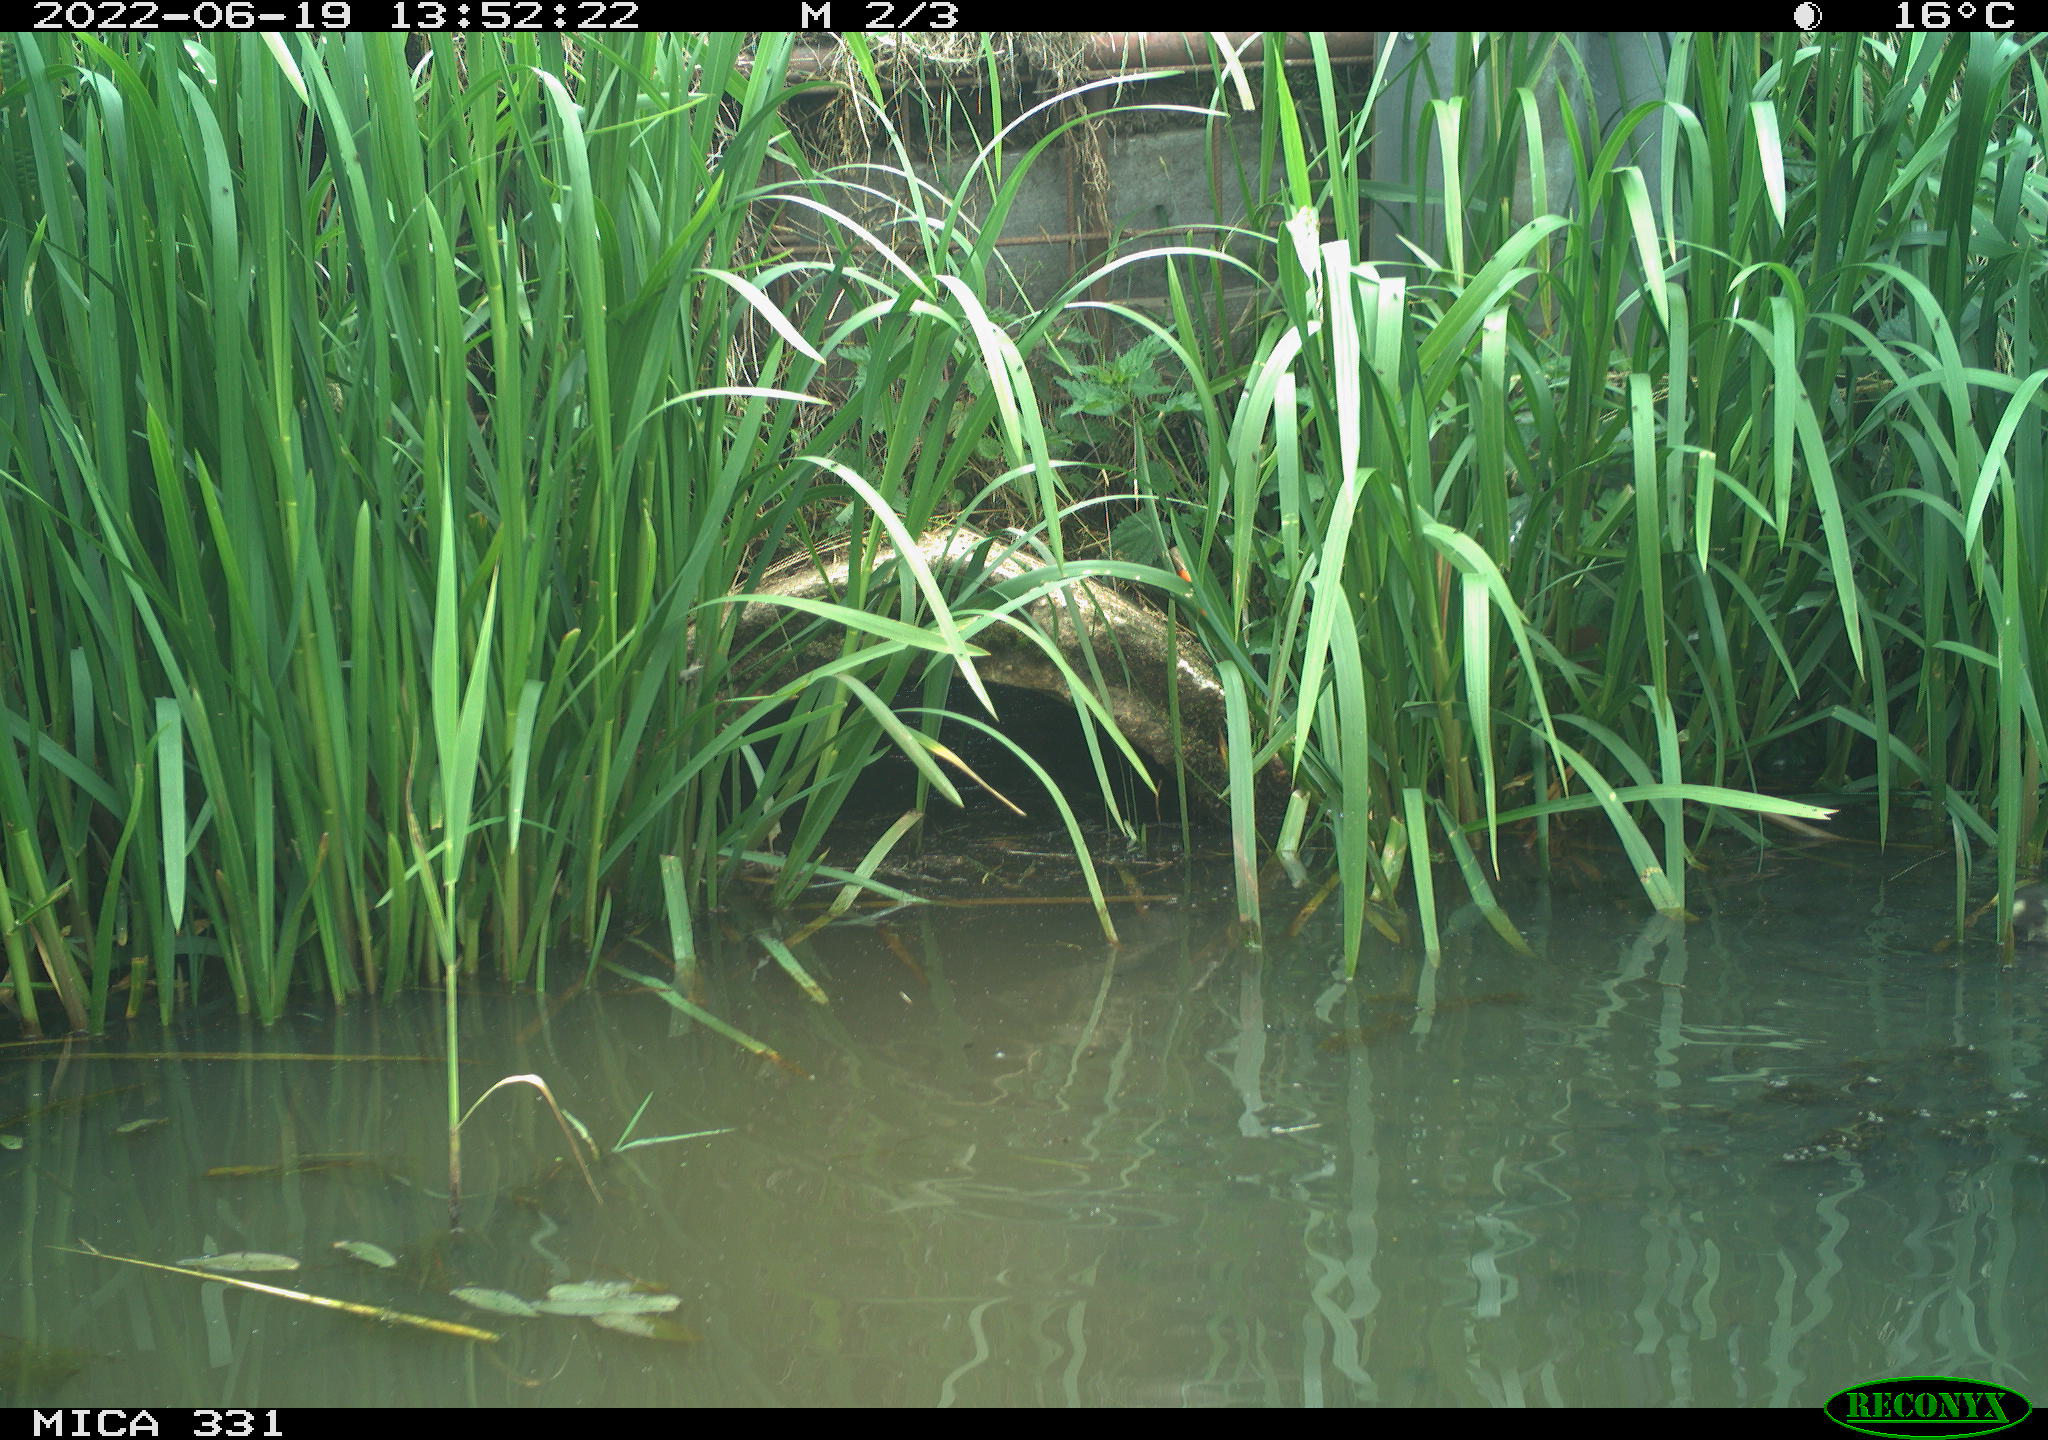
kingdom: Animalia
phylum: Chordata
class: Aves
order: Anseriformes
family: Anatidae
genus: Anas
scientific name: Anas platyrhynchos
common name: Mallard
